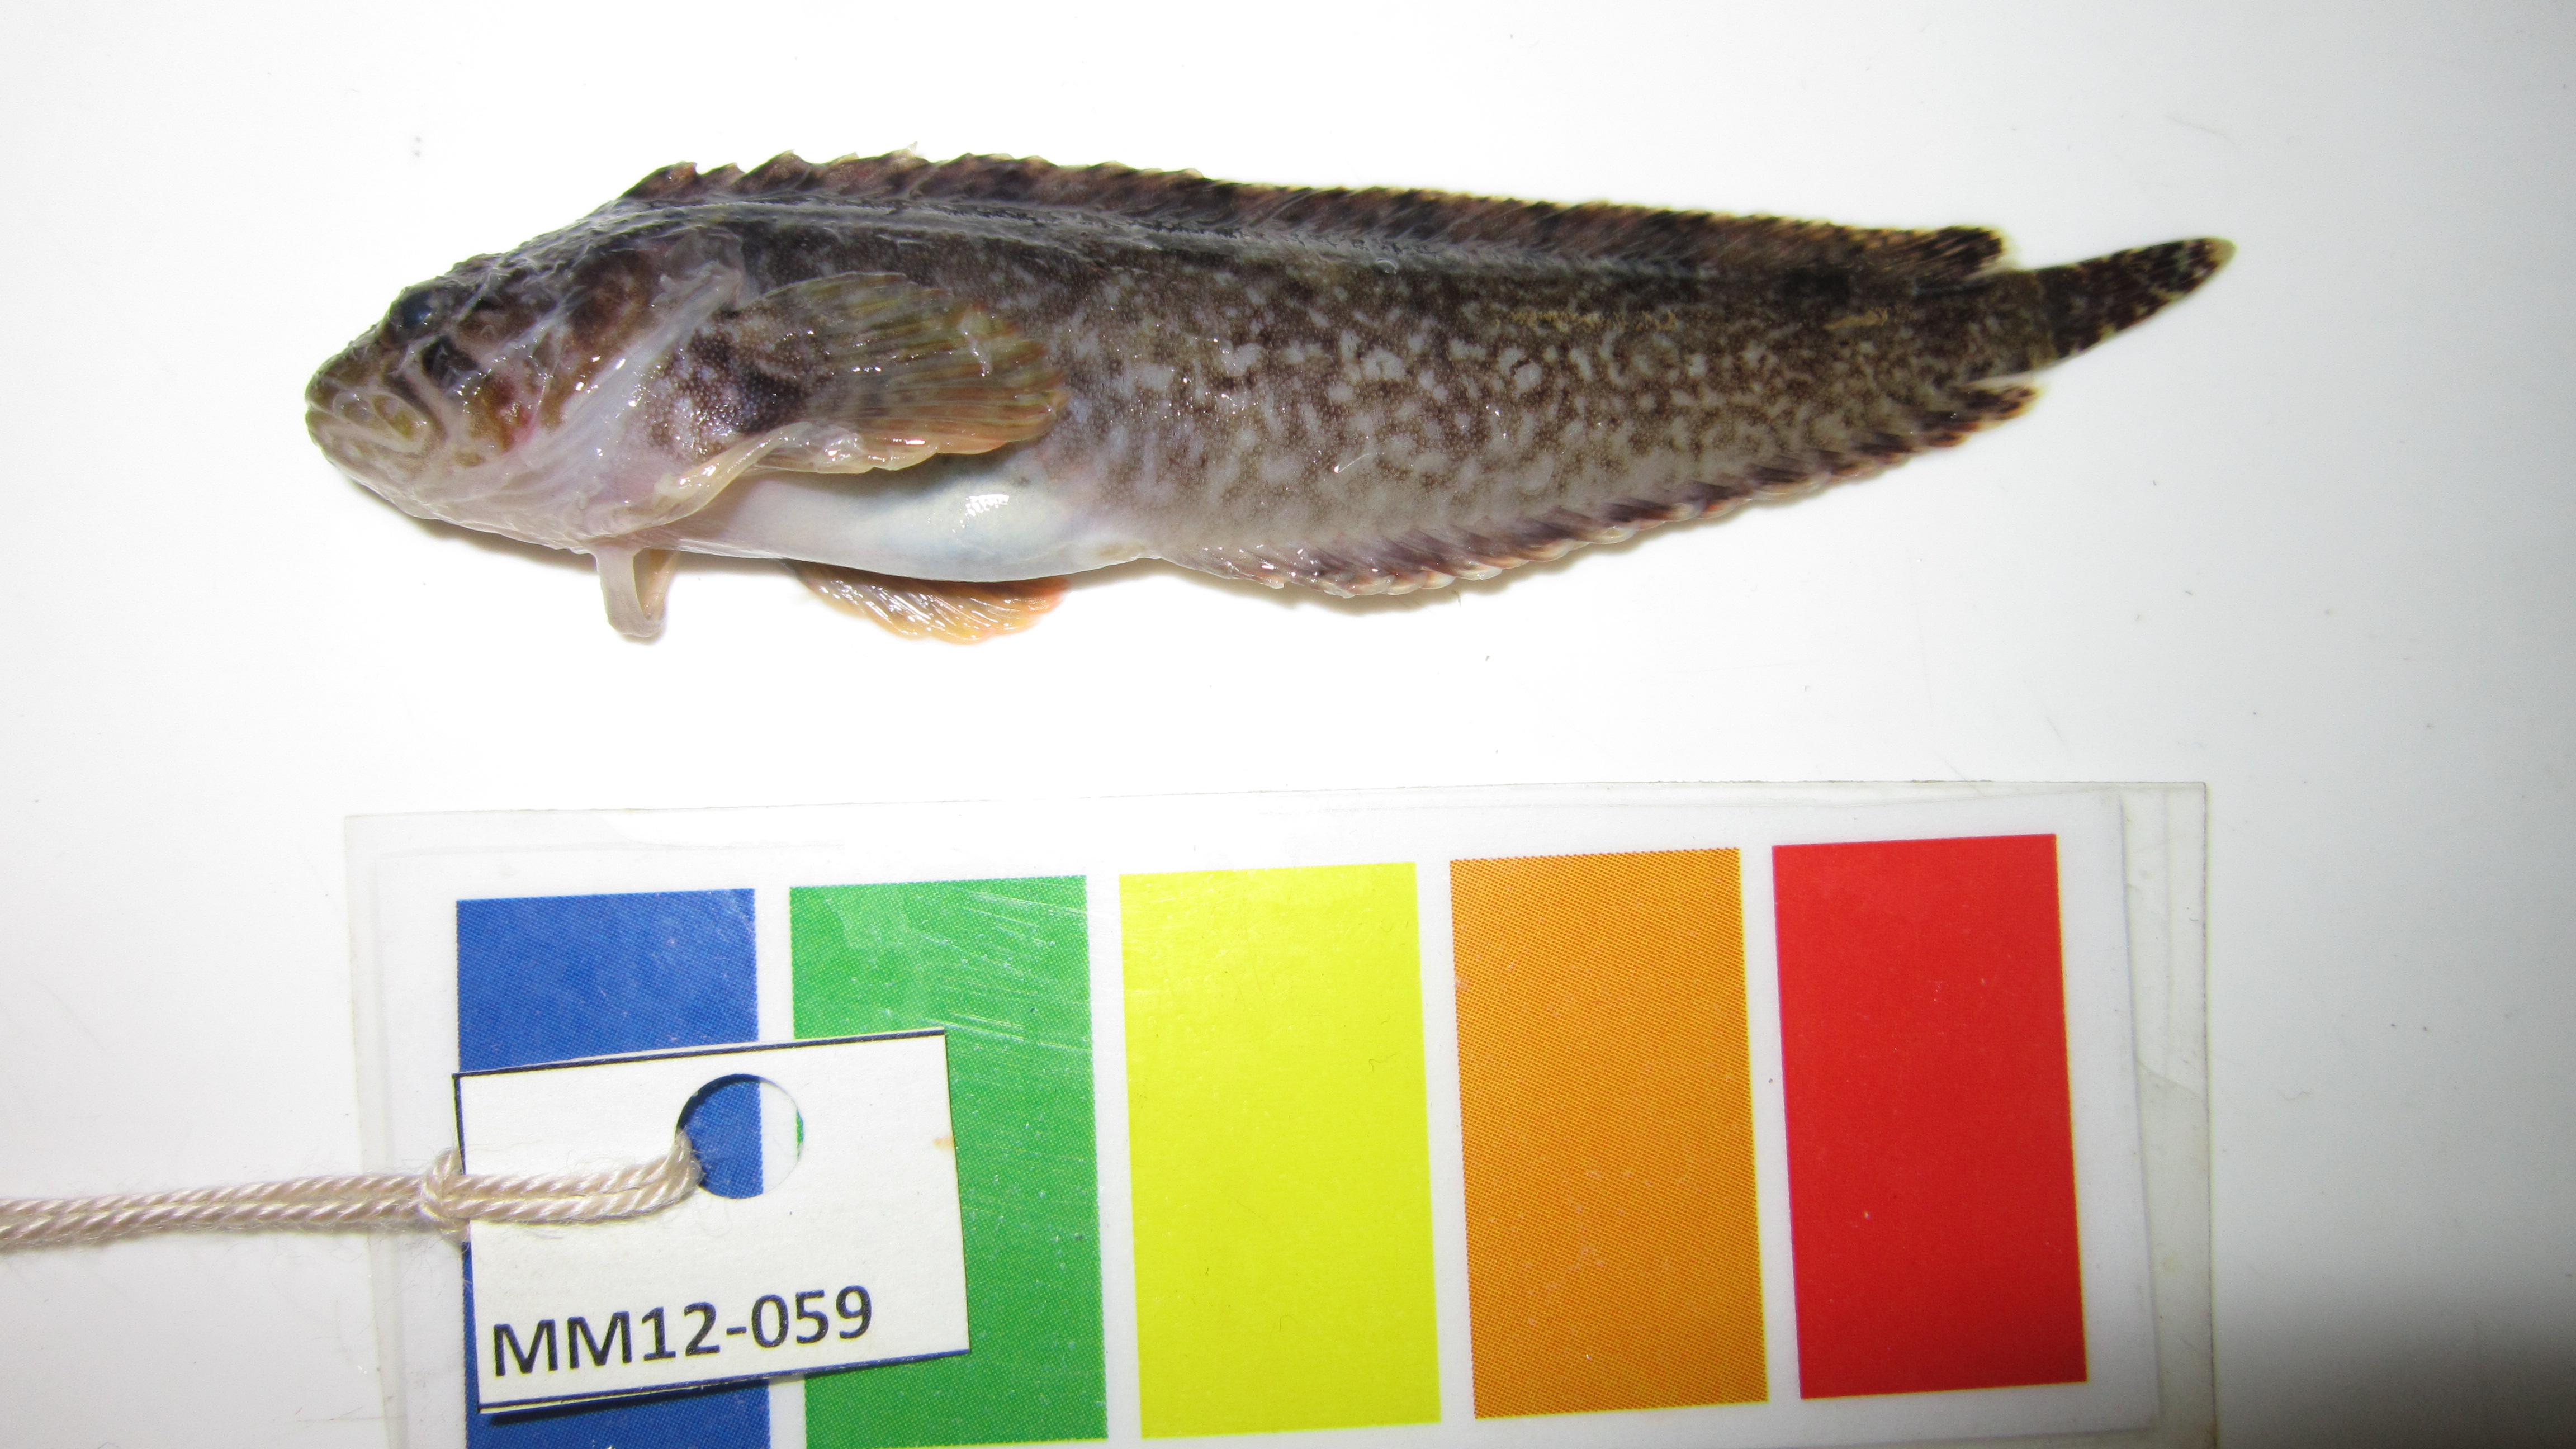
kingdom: Animalia
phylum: Chordata
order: Perciformes
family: Clinidae
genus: Clinus
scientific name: Clinus
